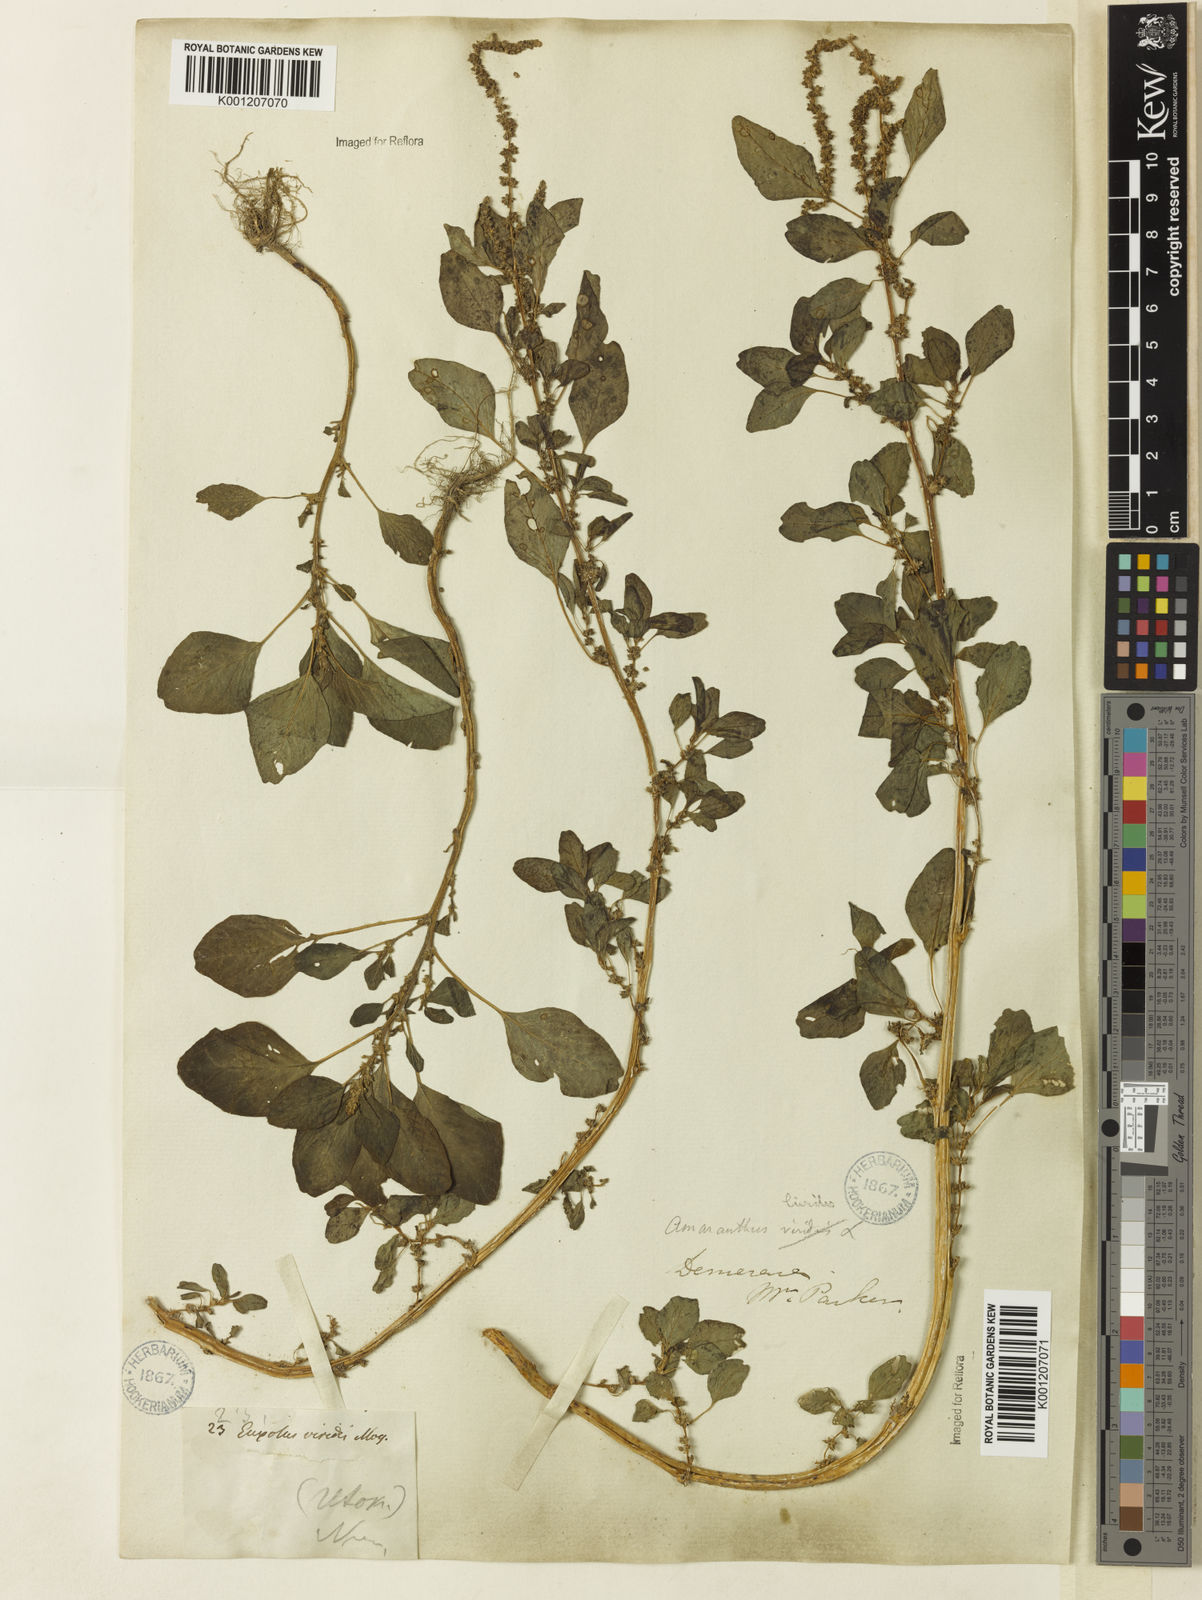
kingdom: Plantae
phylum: Tracheophyta
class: Magnoliopsida
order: Caryophyllales
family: Amaranthaceae
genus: Amaranthus
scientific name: Amaranthus blitum
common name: Purple amaranth
